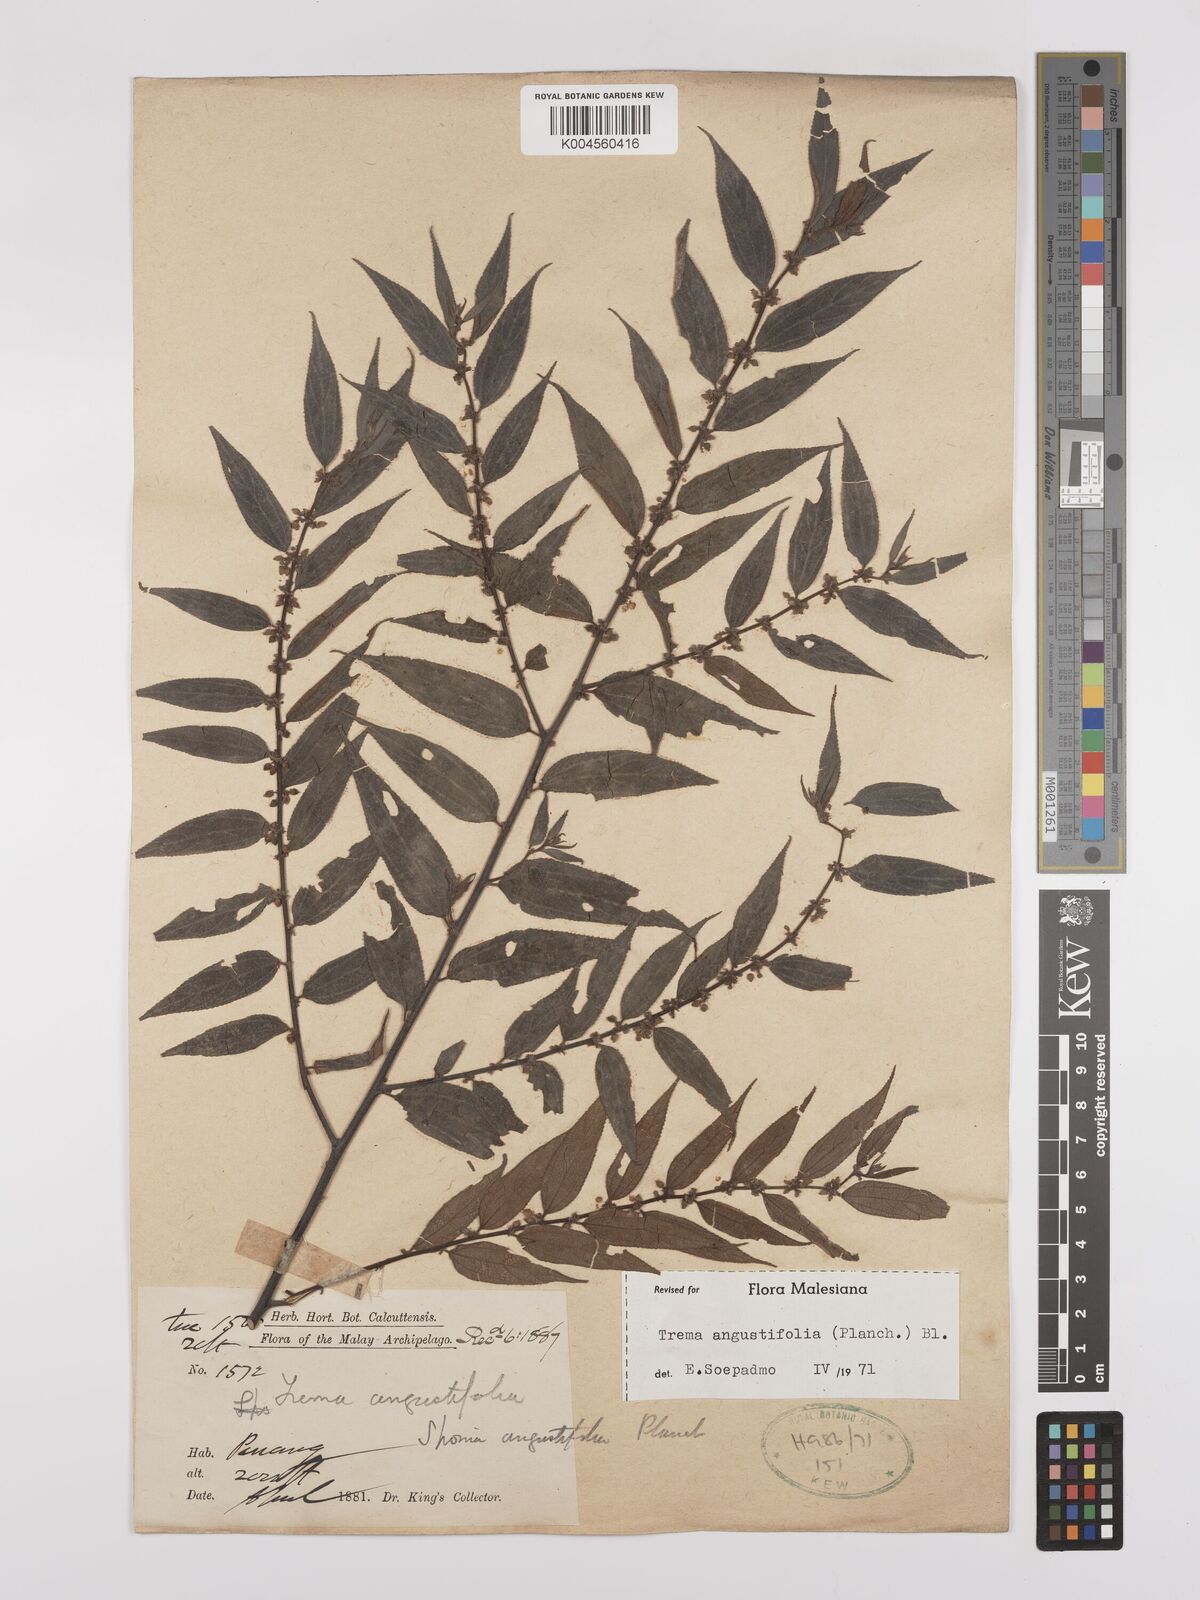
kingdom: Plantae
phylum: Tracheophyta
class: Magnoliopsida
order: Rosales
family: Cannabaceae
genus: Trema
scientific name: Trema angustifolium
